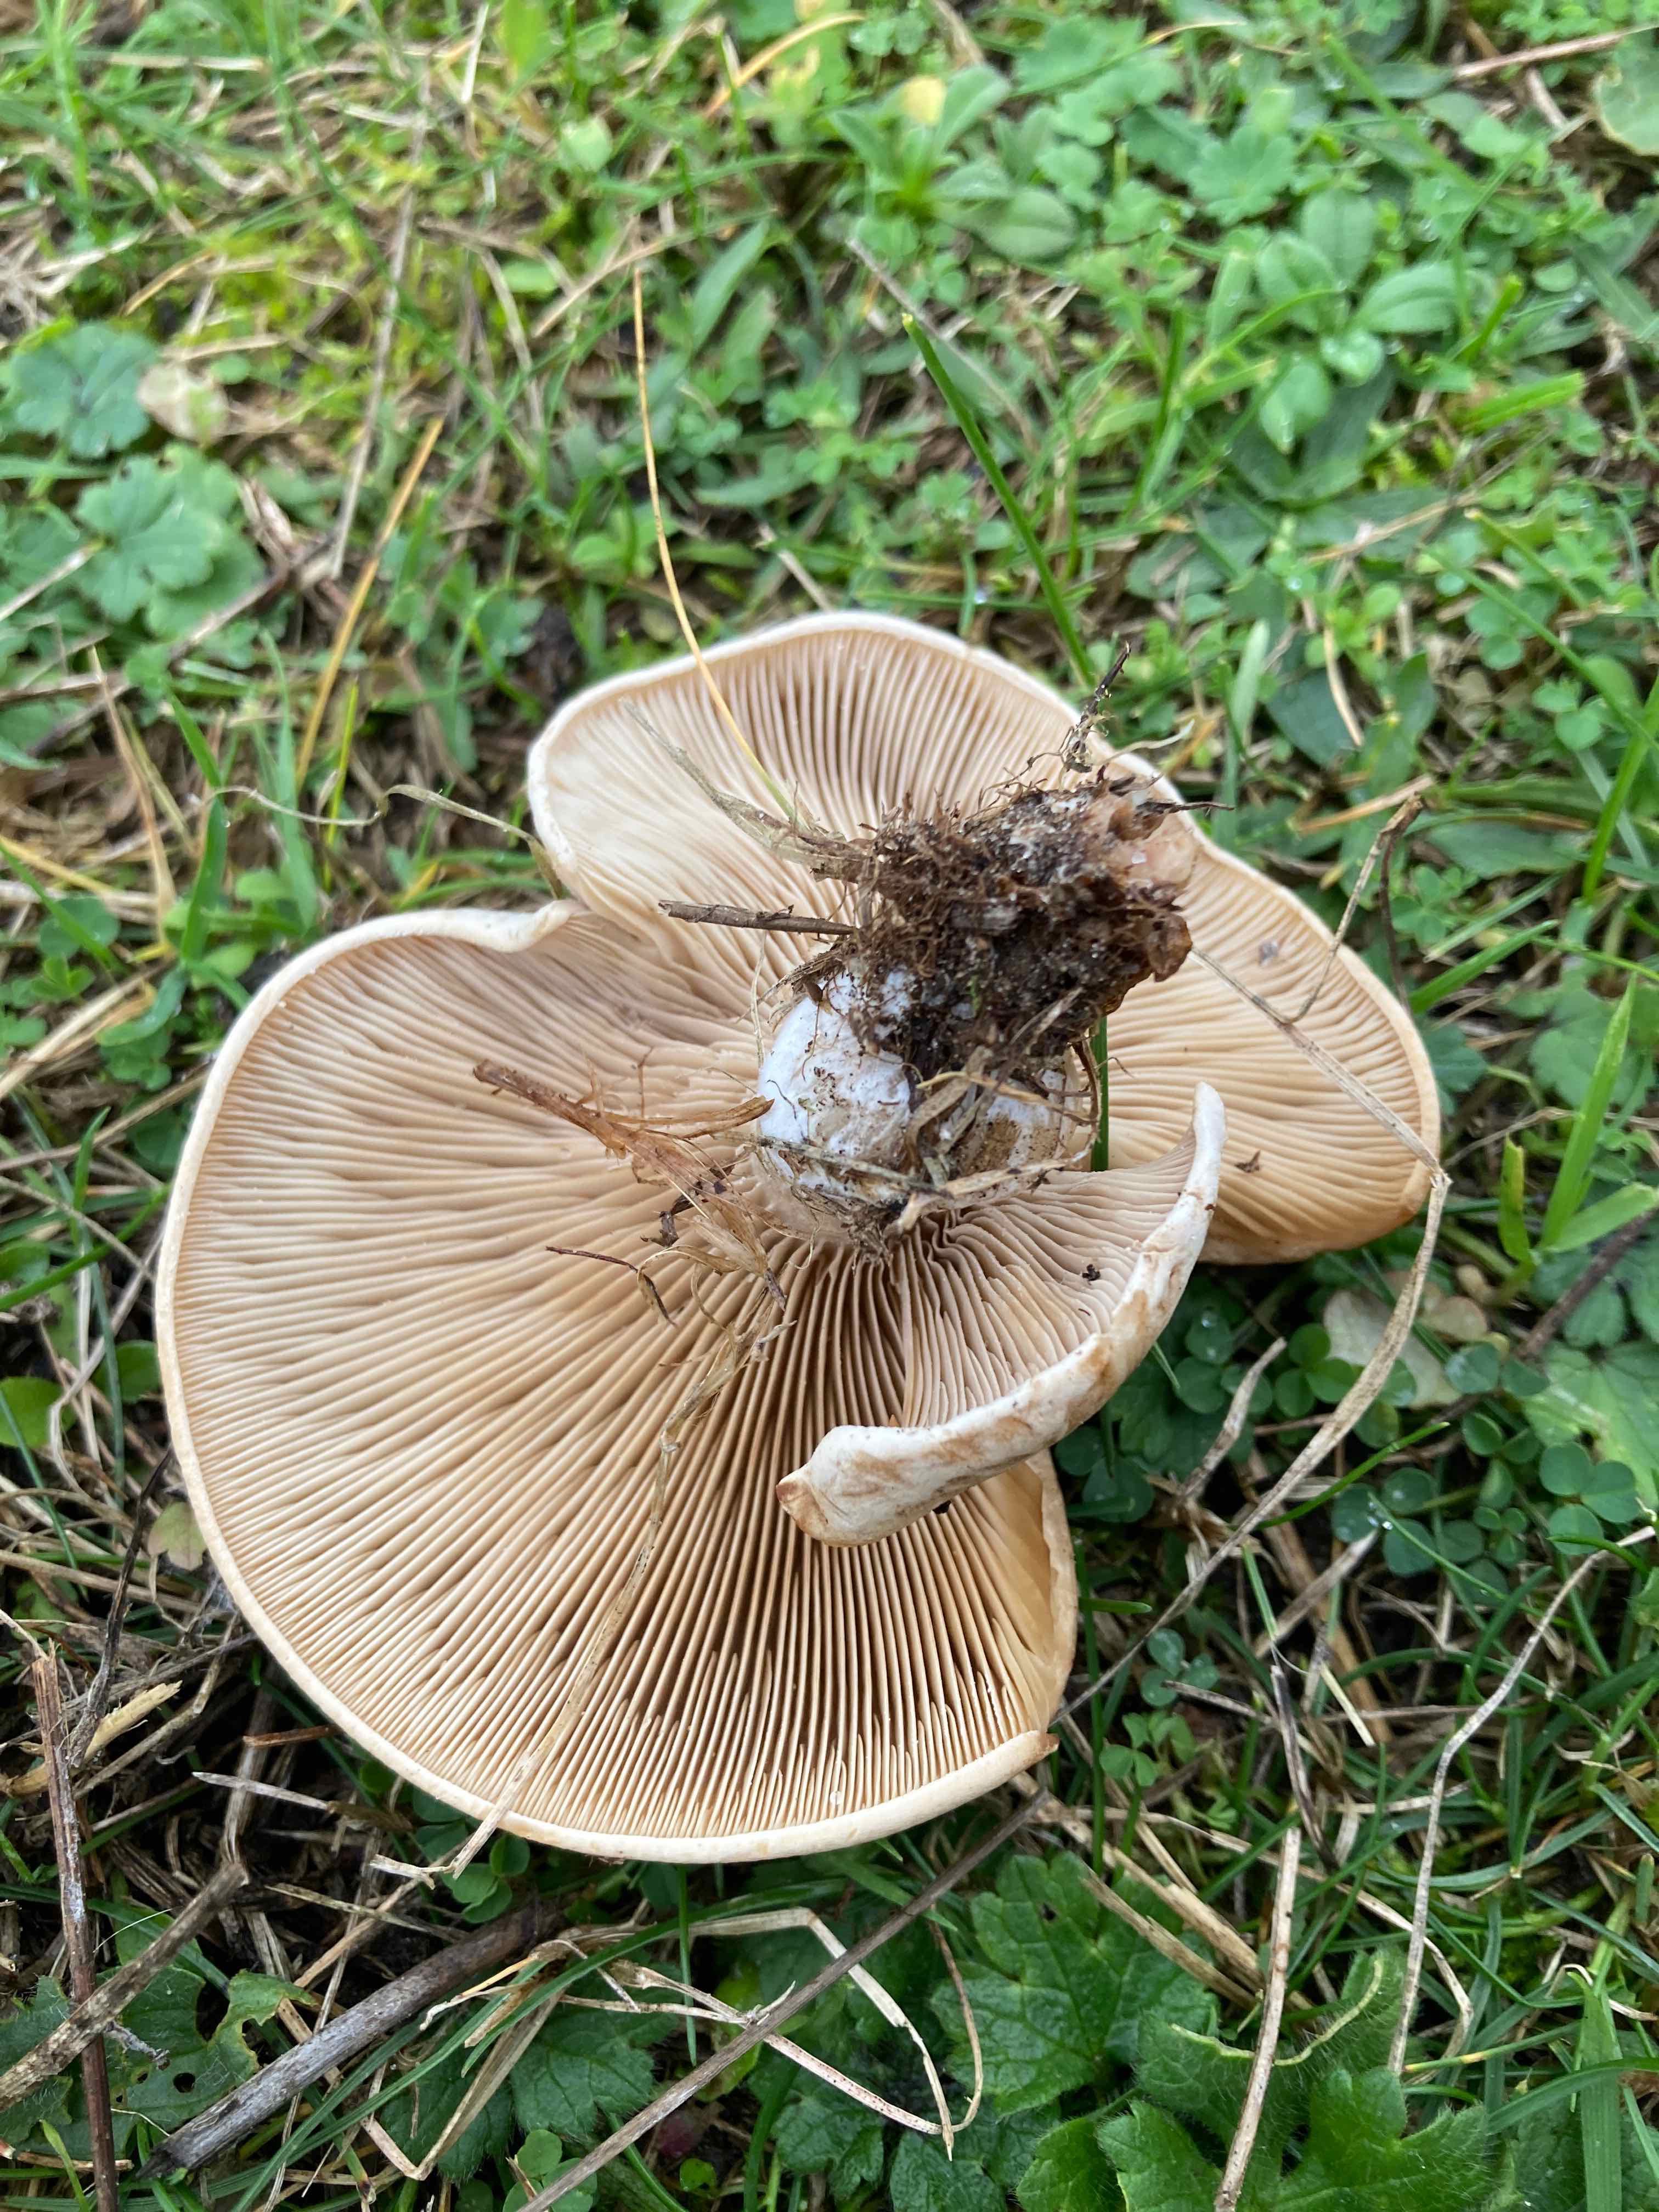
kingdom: Fungi
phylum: Basidiomycota
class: Agaricomycetes
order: Agaricales
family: Tricholomataceae
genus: Lepista
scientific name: Lepista panaeolus
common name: marmoreret hekseringshat
